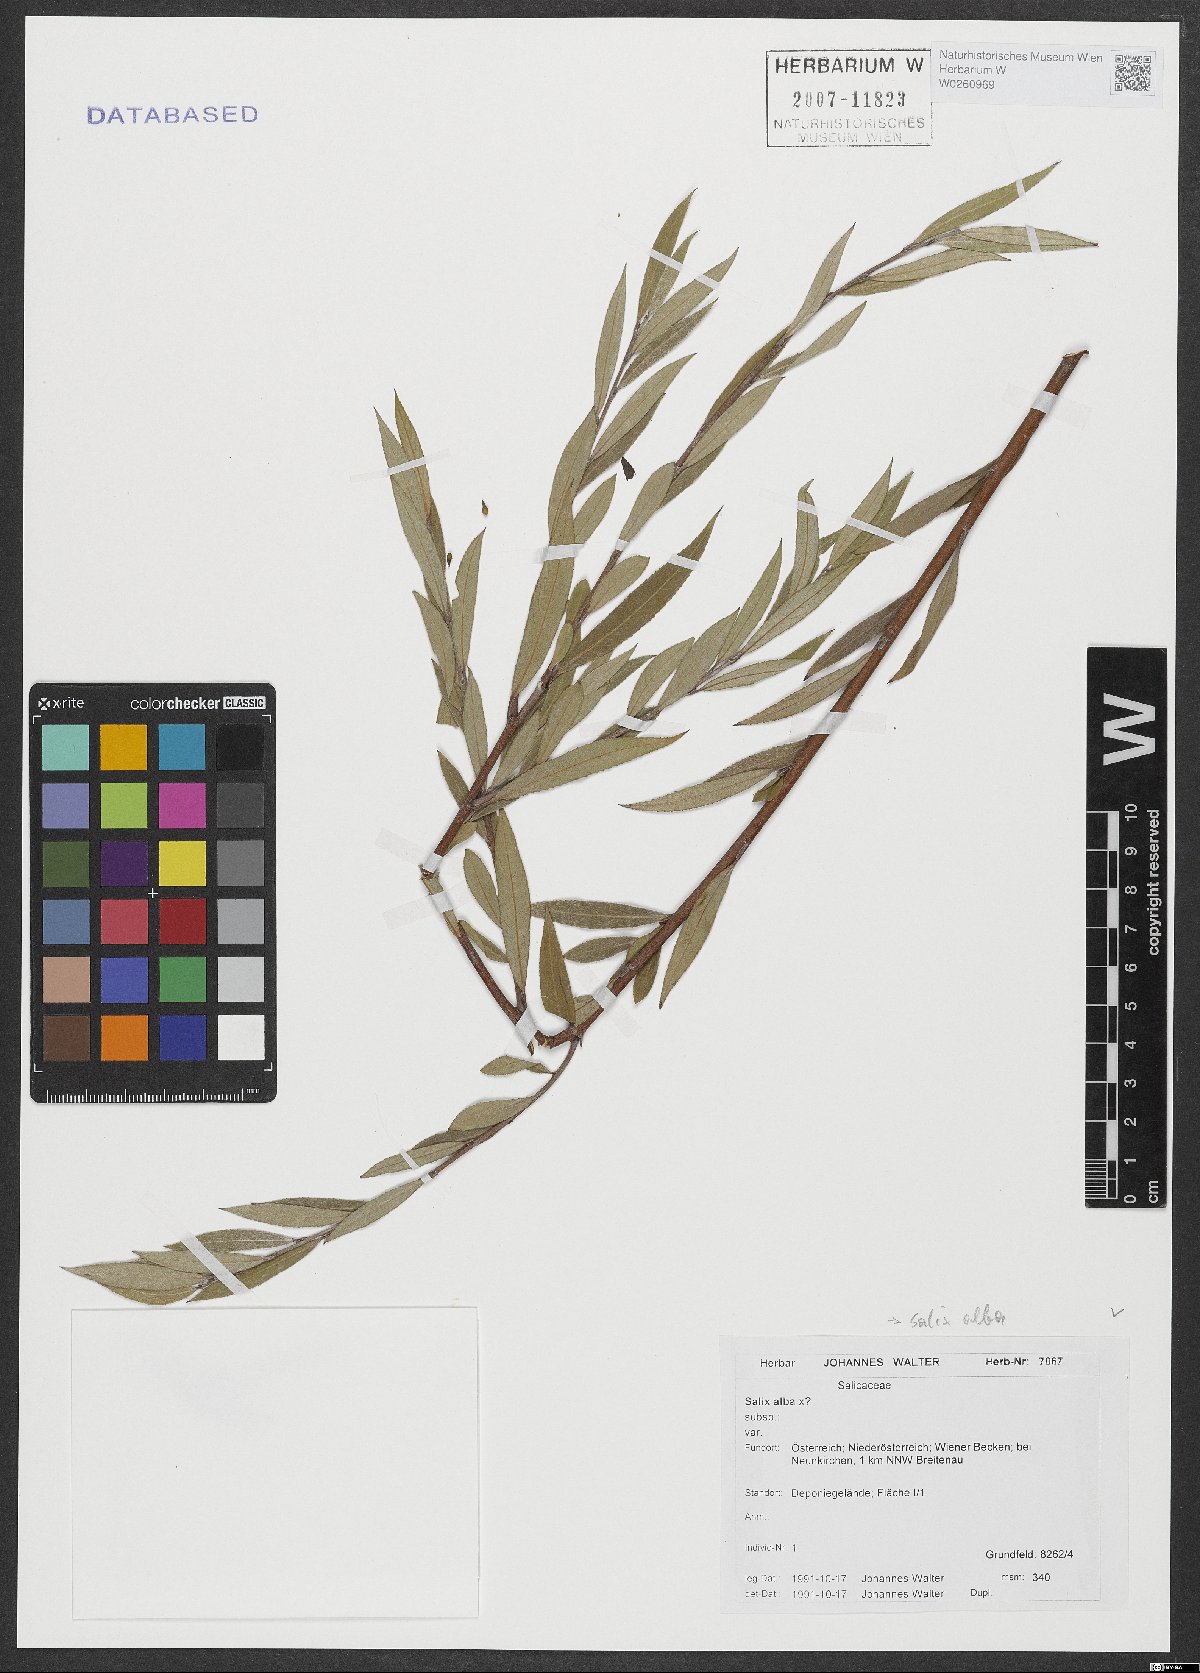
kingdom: Plantae
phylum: Tracheophyta
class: Magnoliopsida
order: Malpighiales
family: Salicaceae
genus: Salix
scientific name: Salix alba
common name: White willow
